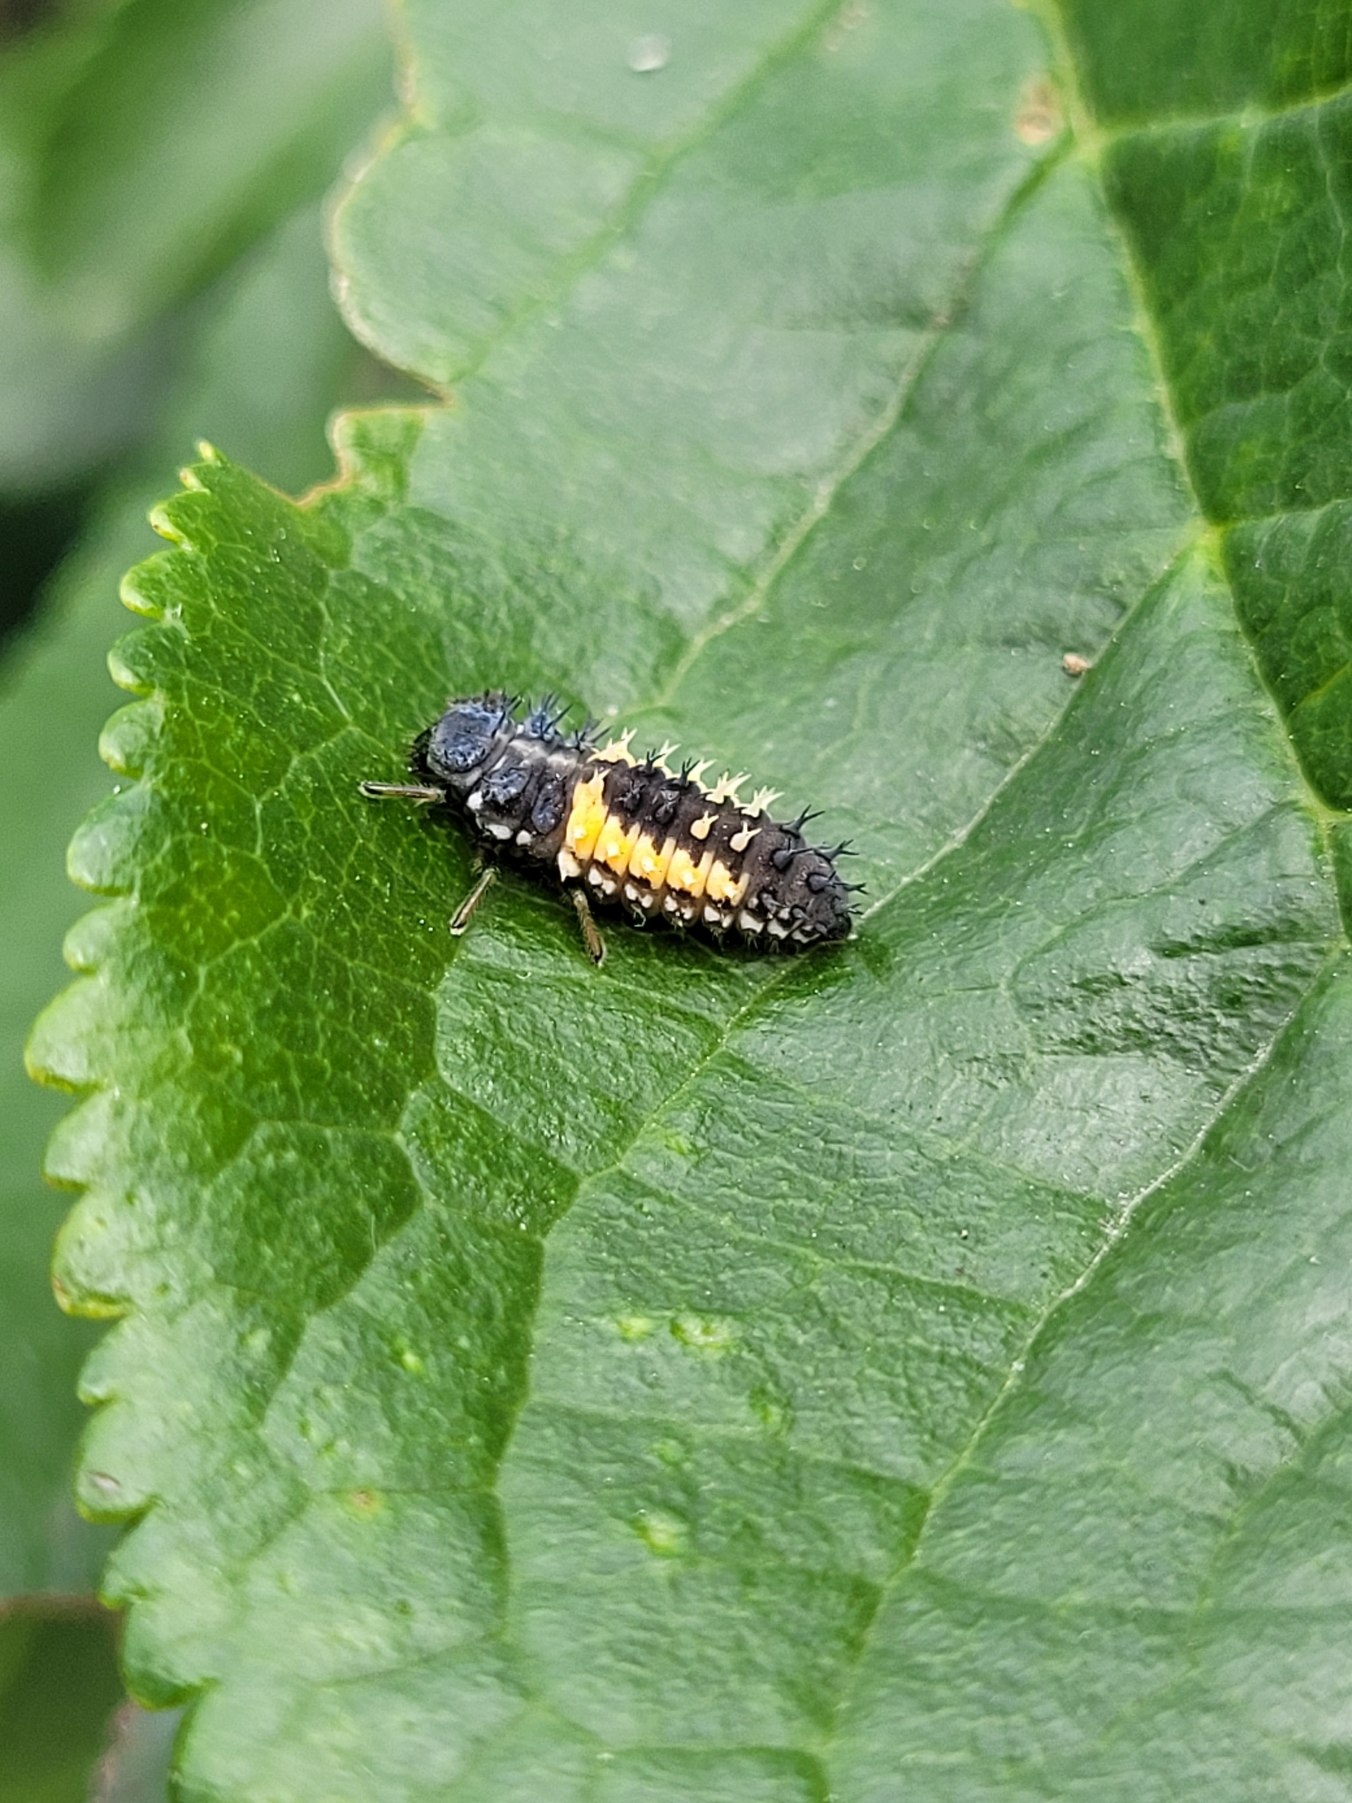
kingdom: Animalia
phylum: Arthropoda
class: Insecta
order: Coleoptera
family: Coccinellidae
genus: Harmonia
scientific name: Harmonia axyridis
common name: Harlekinmariehøne
